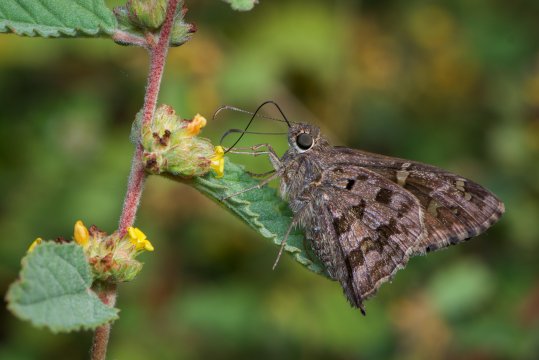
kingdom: Animalia
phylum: Arthropoda
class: Insecta
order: Lepidoptera
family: Hesperiidae
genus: Urbanus
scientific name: Urbanus dorantes
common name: Dorantes Longtail
